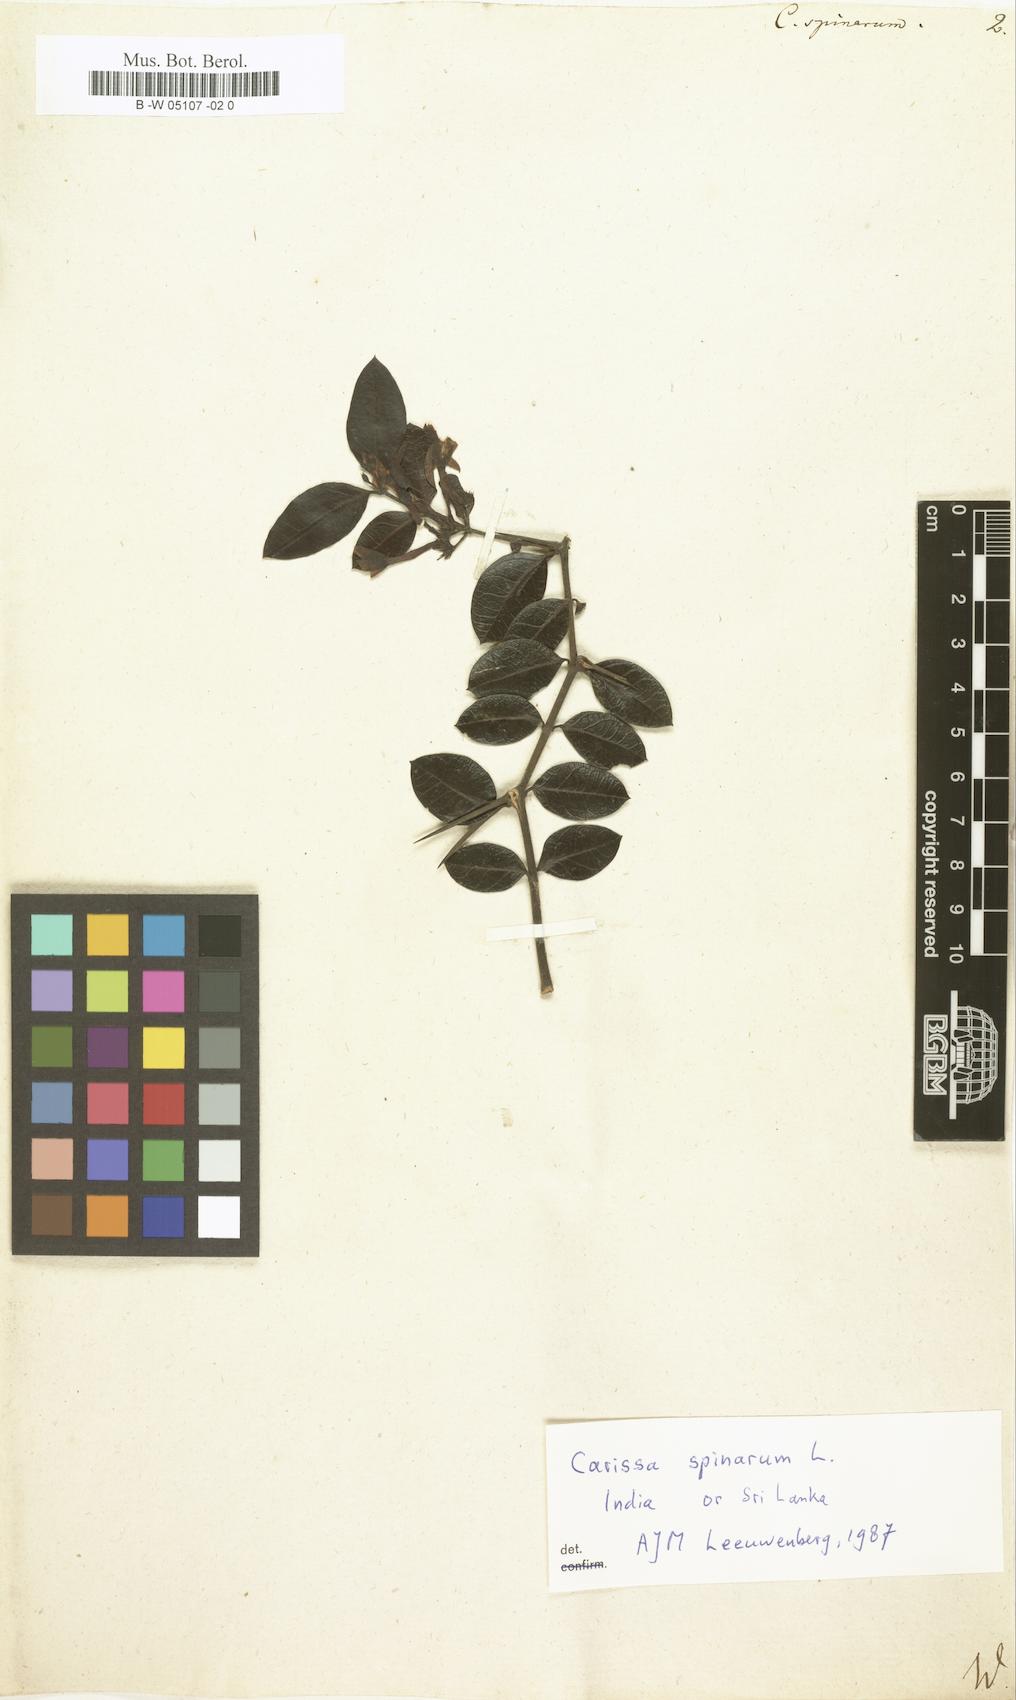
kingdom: Plantae
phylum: Tracheophyta
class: Magnoliopsida
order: Gentianales
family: Apocynaceae
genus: Carissa
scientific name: Carissa spinarum
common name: Egyptian carissa
